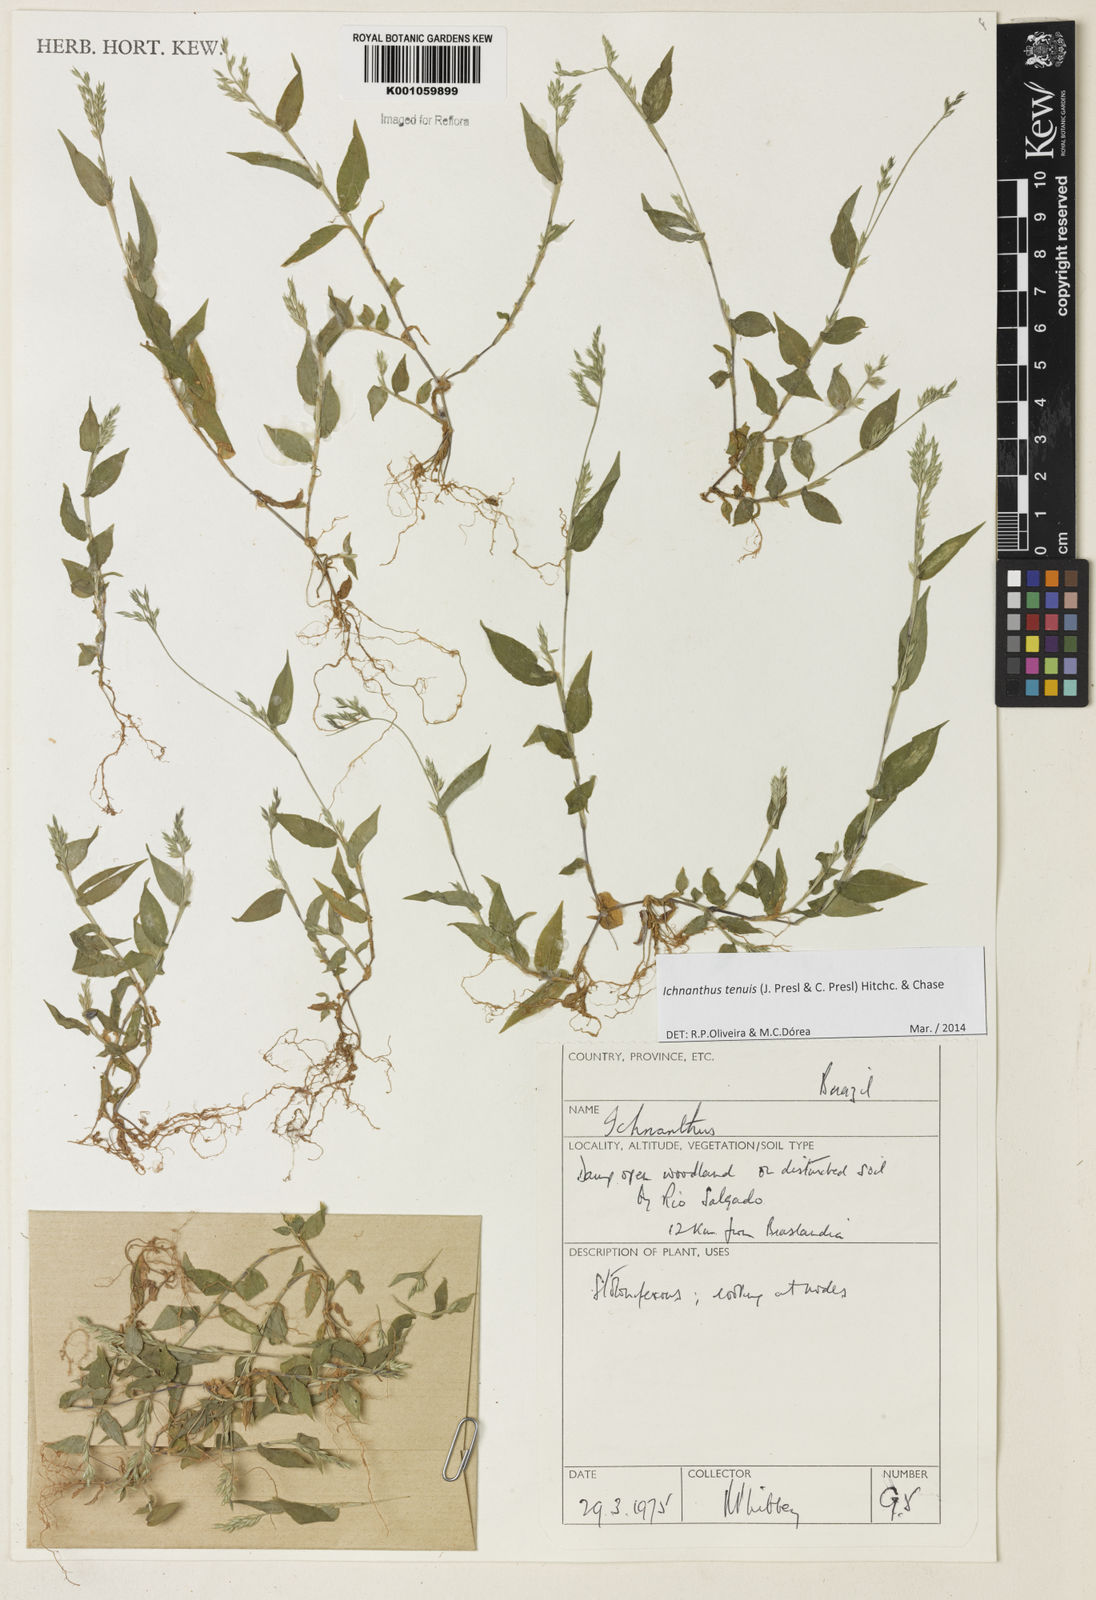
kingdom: Plantae
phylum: Tracheophyta
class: Liliopsida
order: Poales
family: Poaceae
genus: Ichnanthus
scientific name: Ichnanthus tenuis
